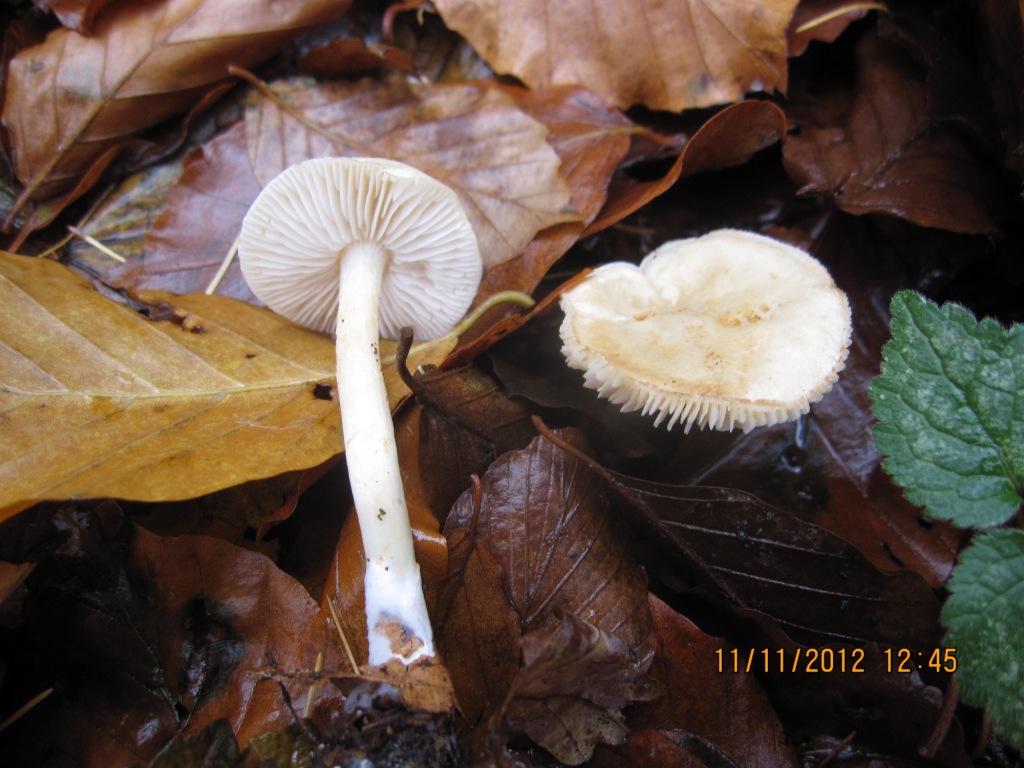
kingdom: Fungi
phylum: Basidiomycota
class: Agaricomycetes
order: Agaricales
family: Tricholomataceae
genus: Tricholoma
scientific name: Tricholoma lascivum
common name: stinkende ridderhat
